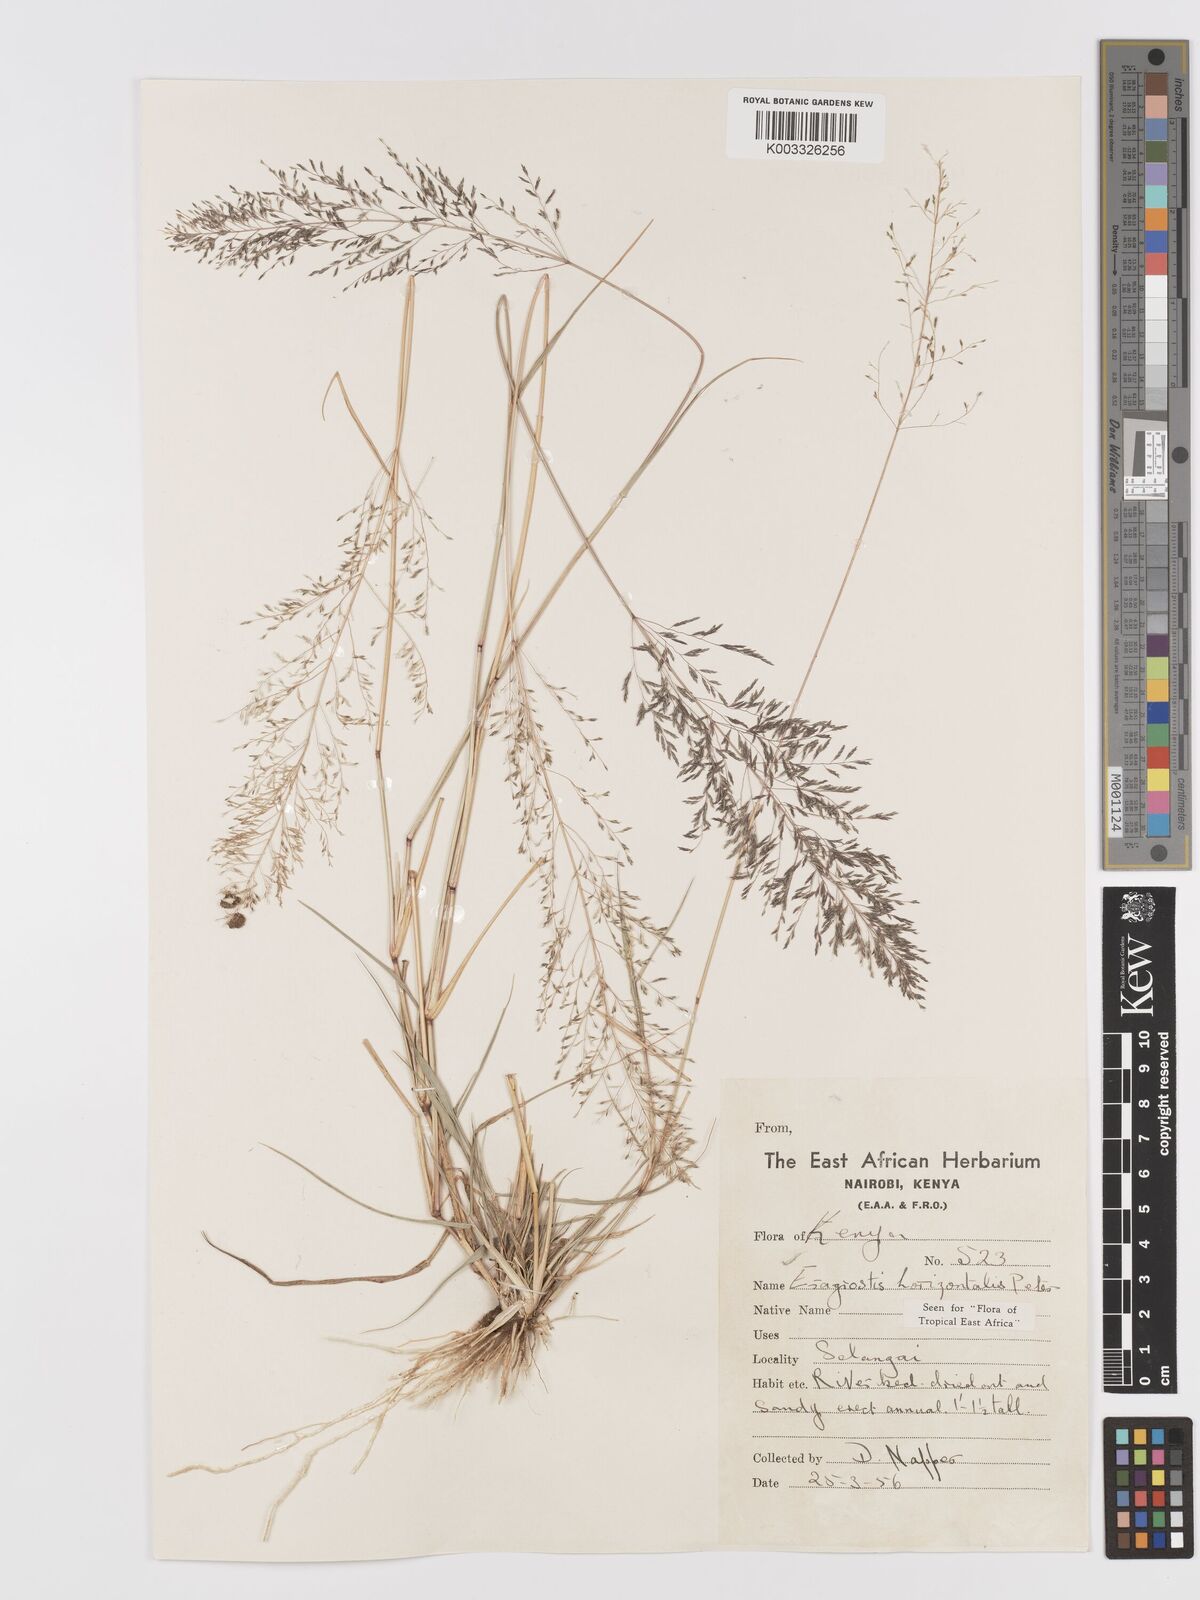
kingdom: Plantae
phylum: Tracheophyta
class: Liliopsida
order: Poales
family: Poaceae
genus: Eragrostis
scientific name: Eragrostis cylindriflora
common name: Cylinderflower lovegrass
